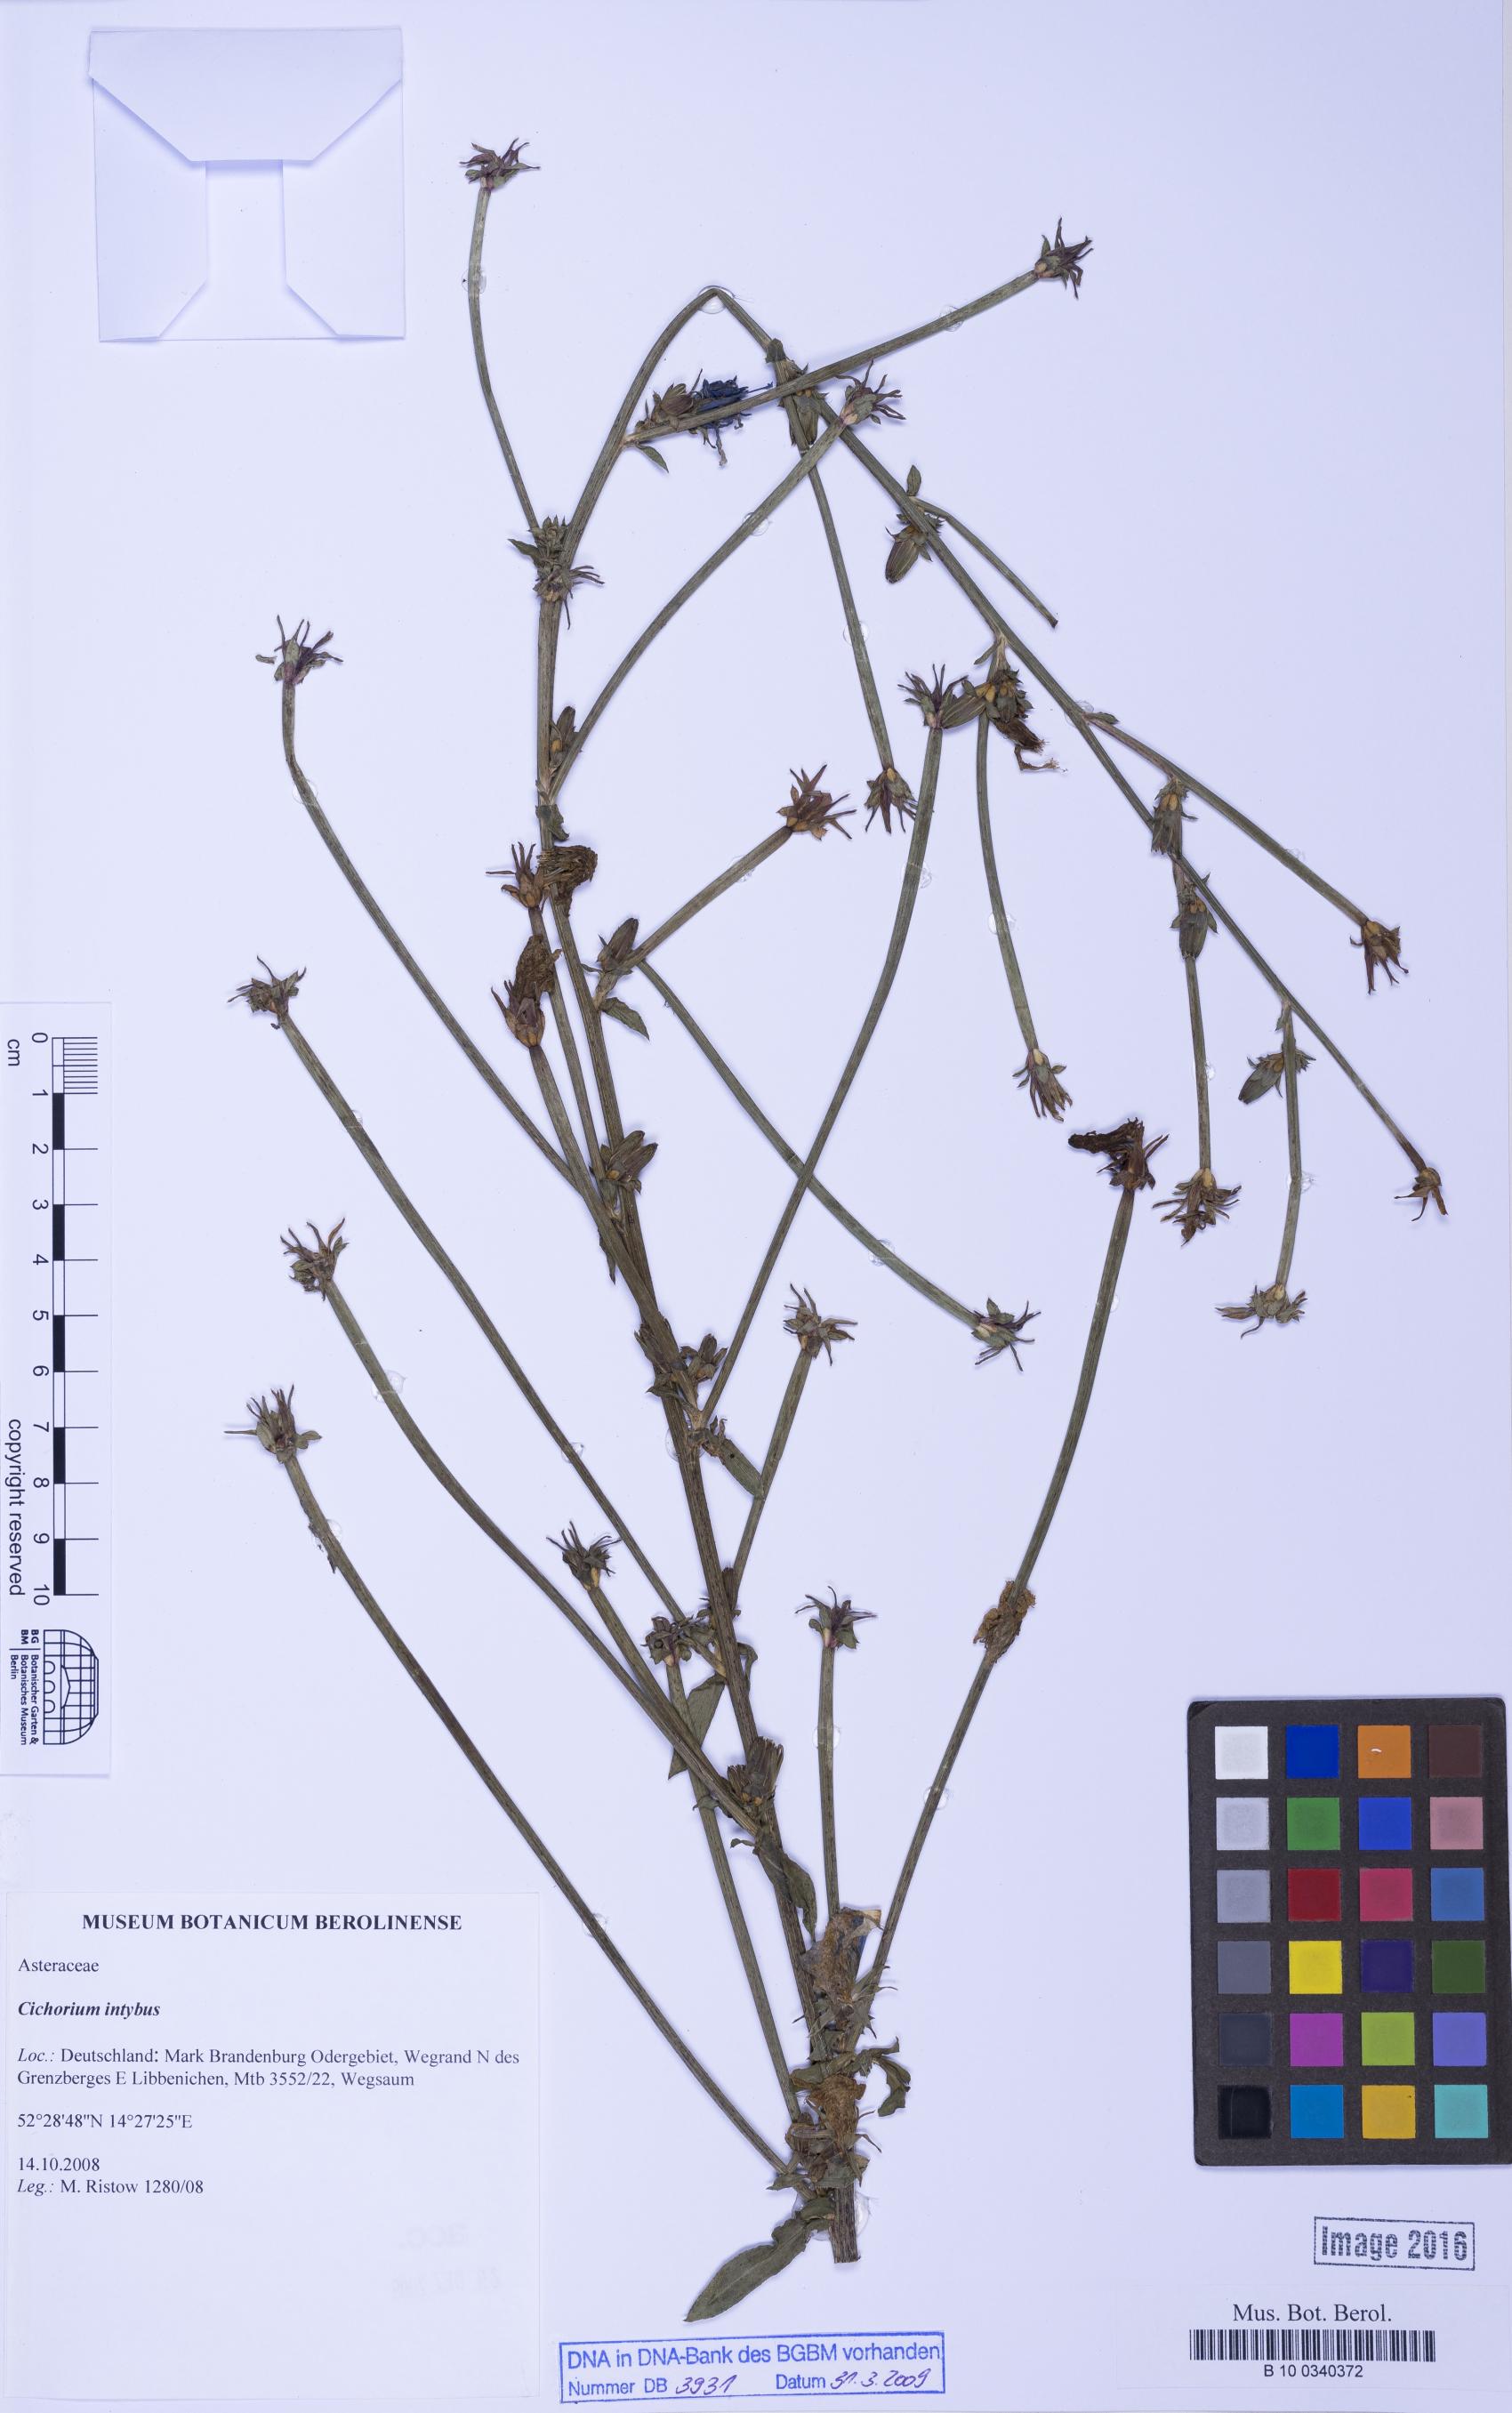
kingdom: Plantae
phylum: Tracheophyta
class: Magnoliopsida
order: Asterales
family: Asteraceae
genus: Cichorium
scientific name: Cichorium intybus
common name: Chicory
